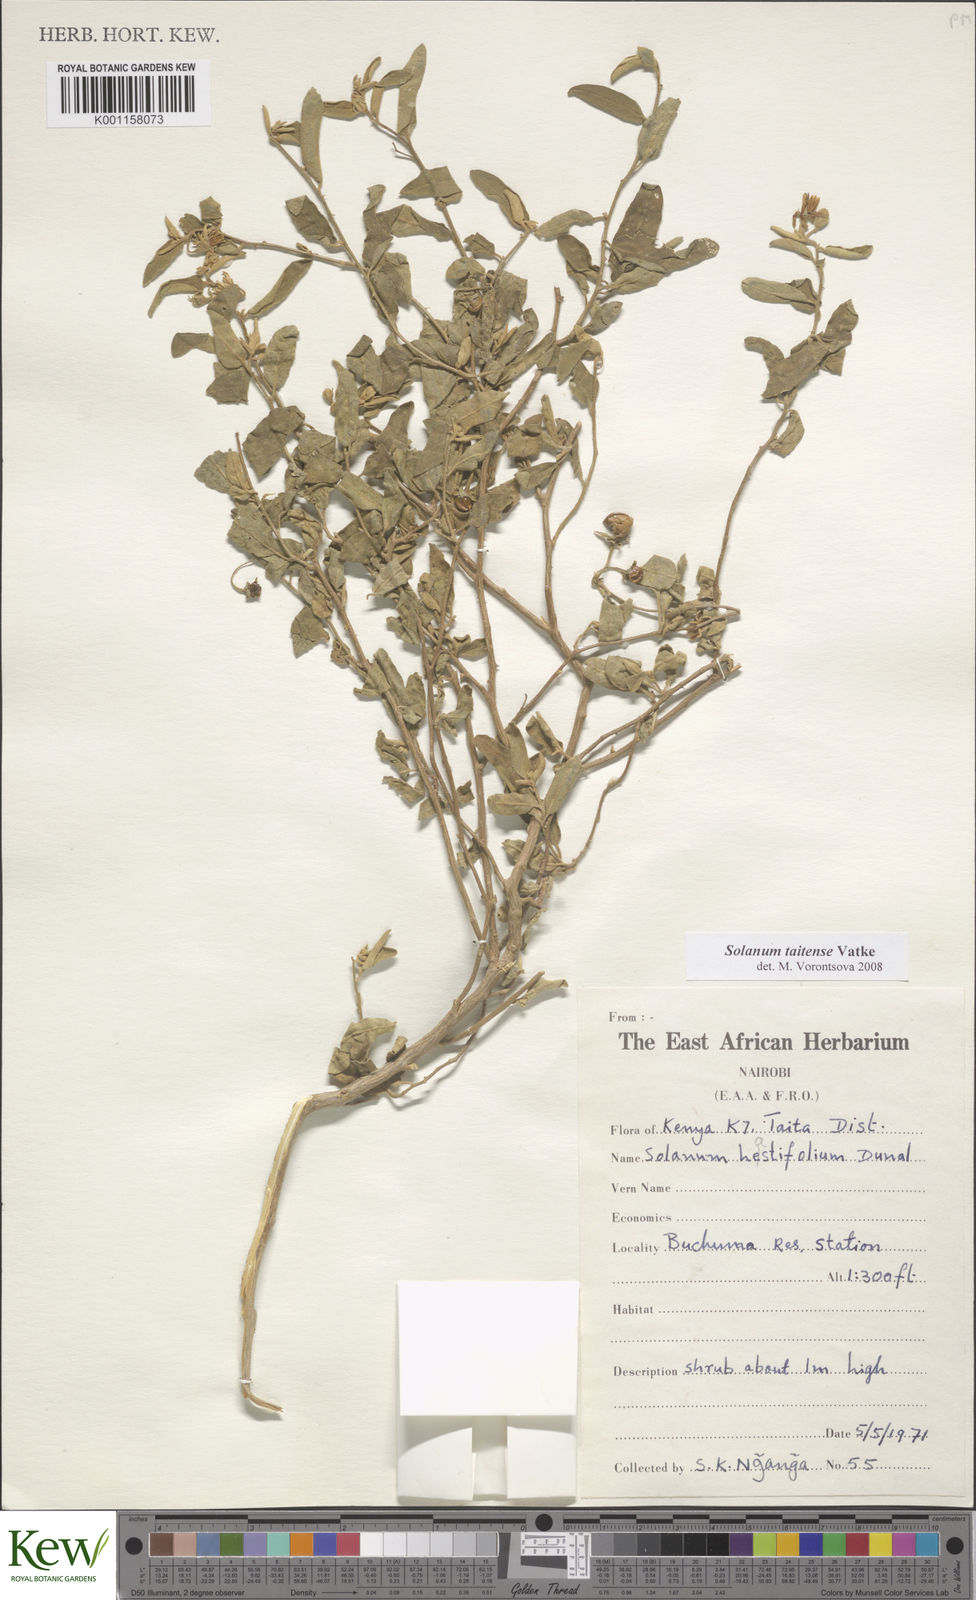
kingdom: Plantae
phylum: Tracheophyta
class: Magnoliopsida
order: Solanales
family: Solanaceae
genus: Solanum
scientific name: Solanum taitense
